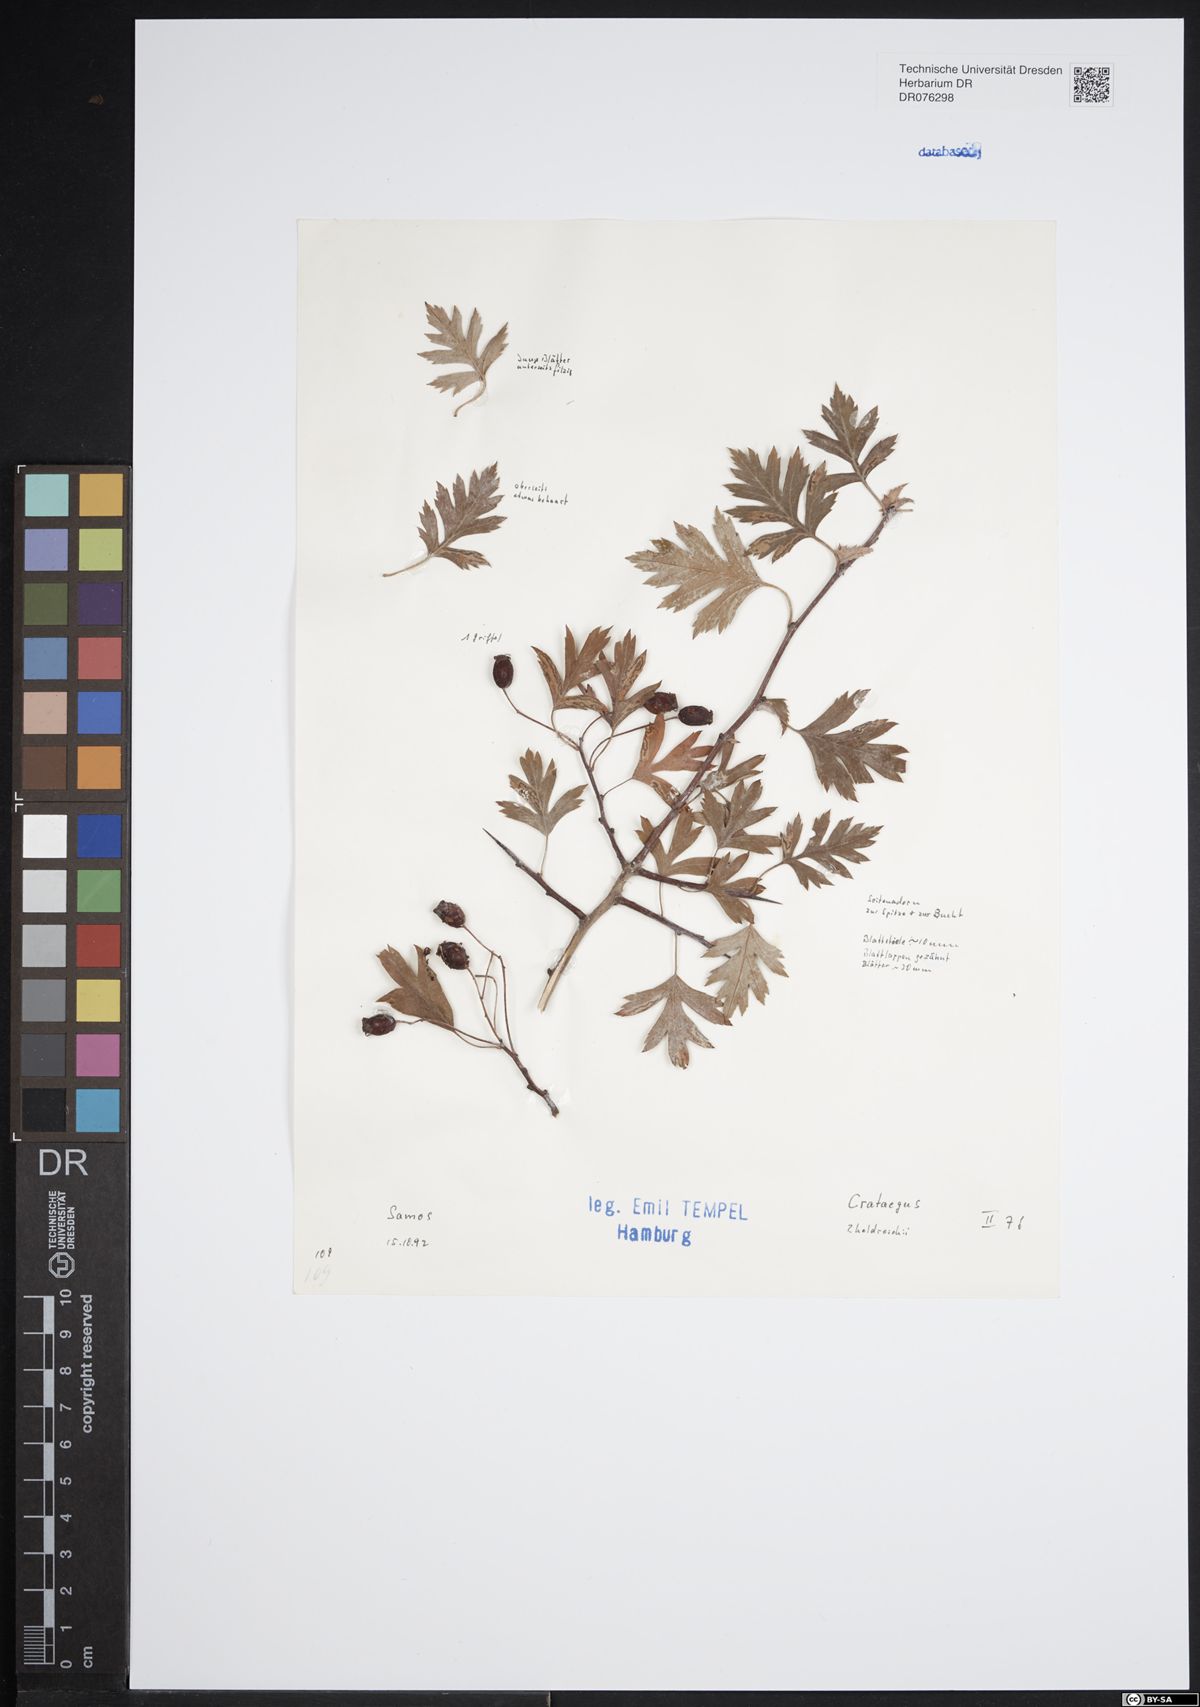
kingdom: Plantae
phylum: Tracheophyta
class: Magnoliopsida
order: Rosales
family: Rosaceae
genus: Crataegus
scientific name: Crataegus heldreichii
